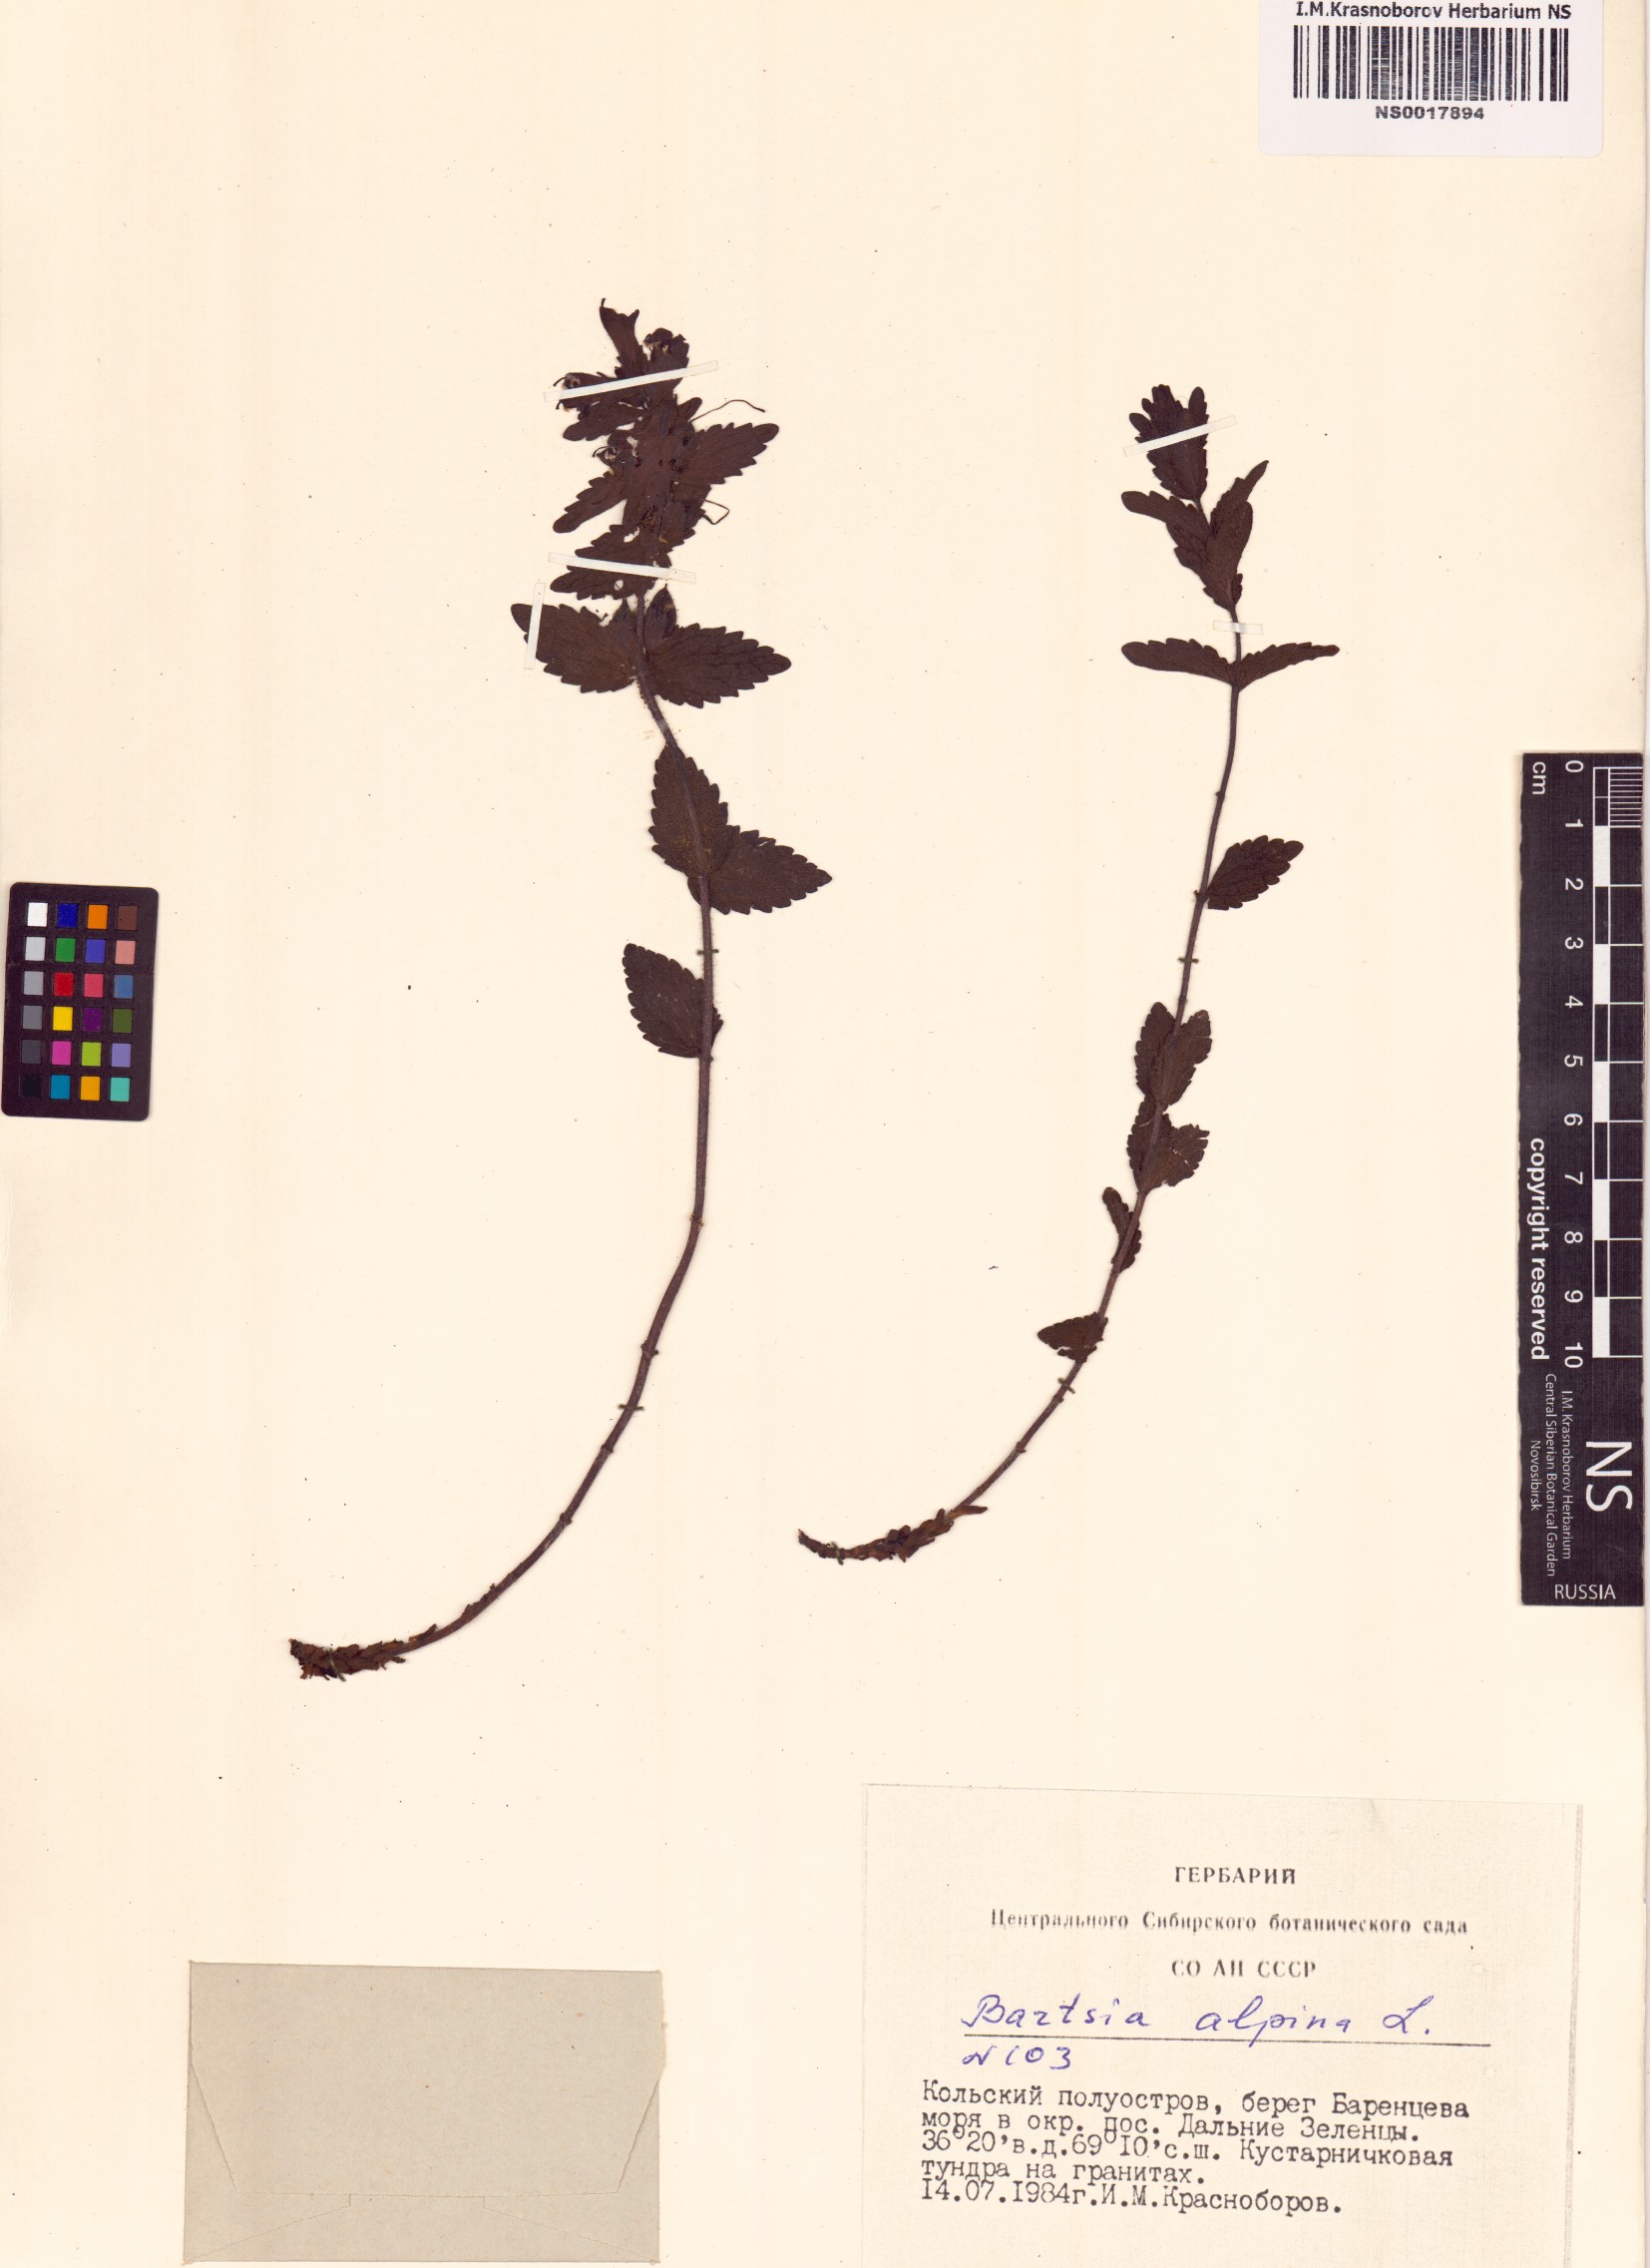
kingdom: Plantae
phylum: Tracheophyta
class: Magnoliopsida
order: Lamiales
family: Orobanchaceae
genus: Bartsia
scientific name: Bartsia alpina
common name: Alpine bartsia
